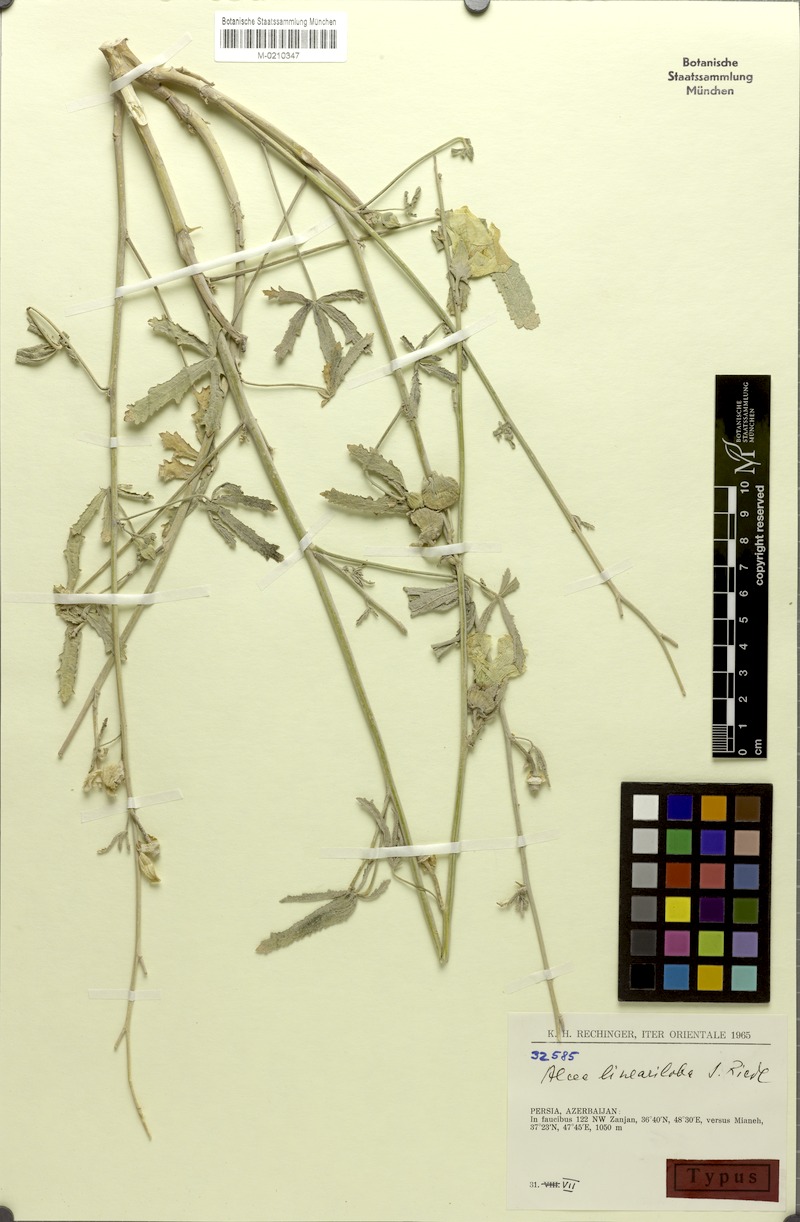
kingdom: Plantae
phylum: Tracheophyta
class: Magnoliopsida
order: Malvales
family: Malvaceae
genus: Alcea
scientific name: Alcea wilhelminae
